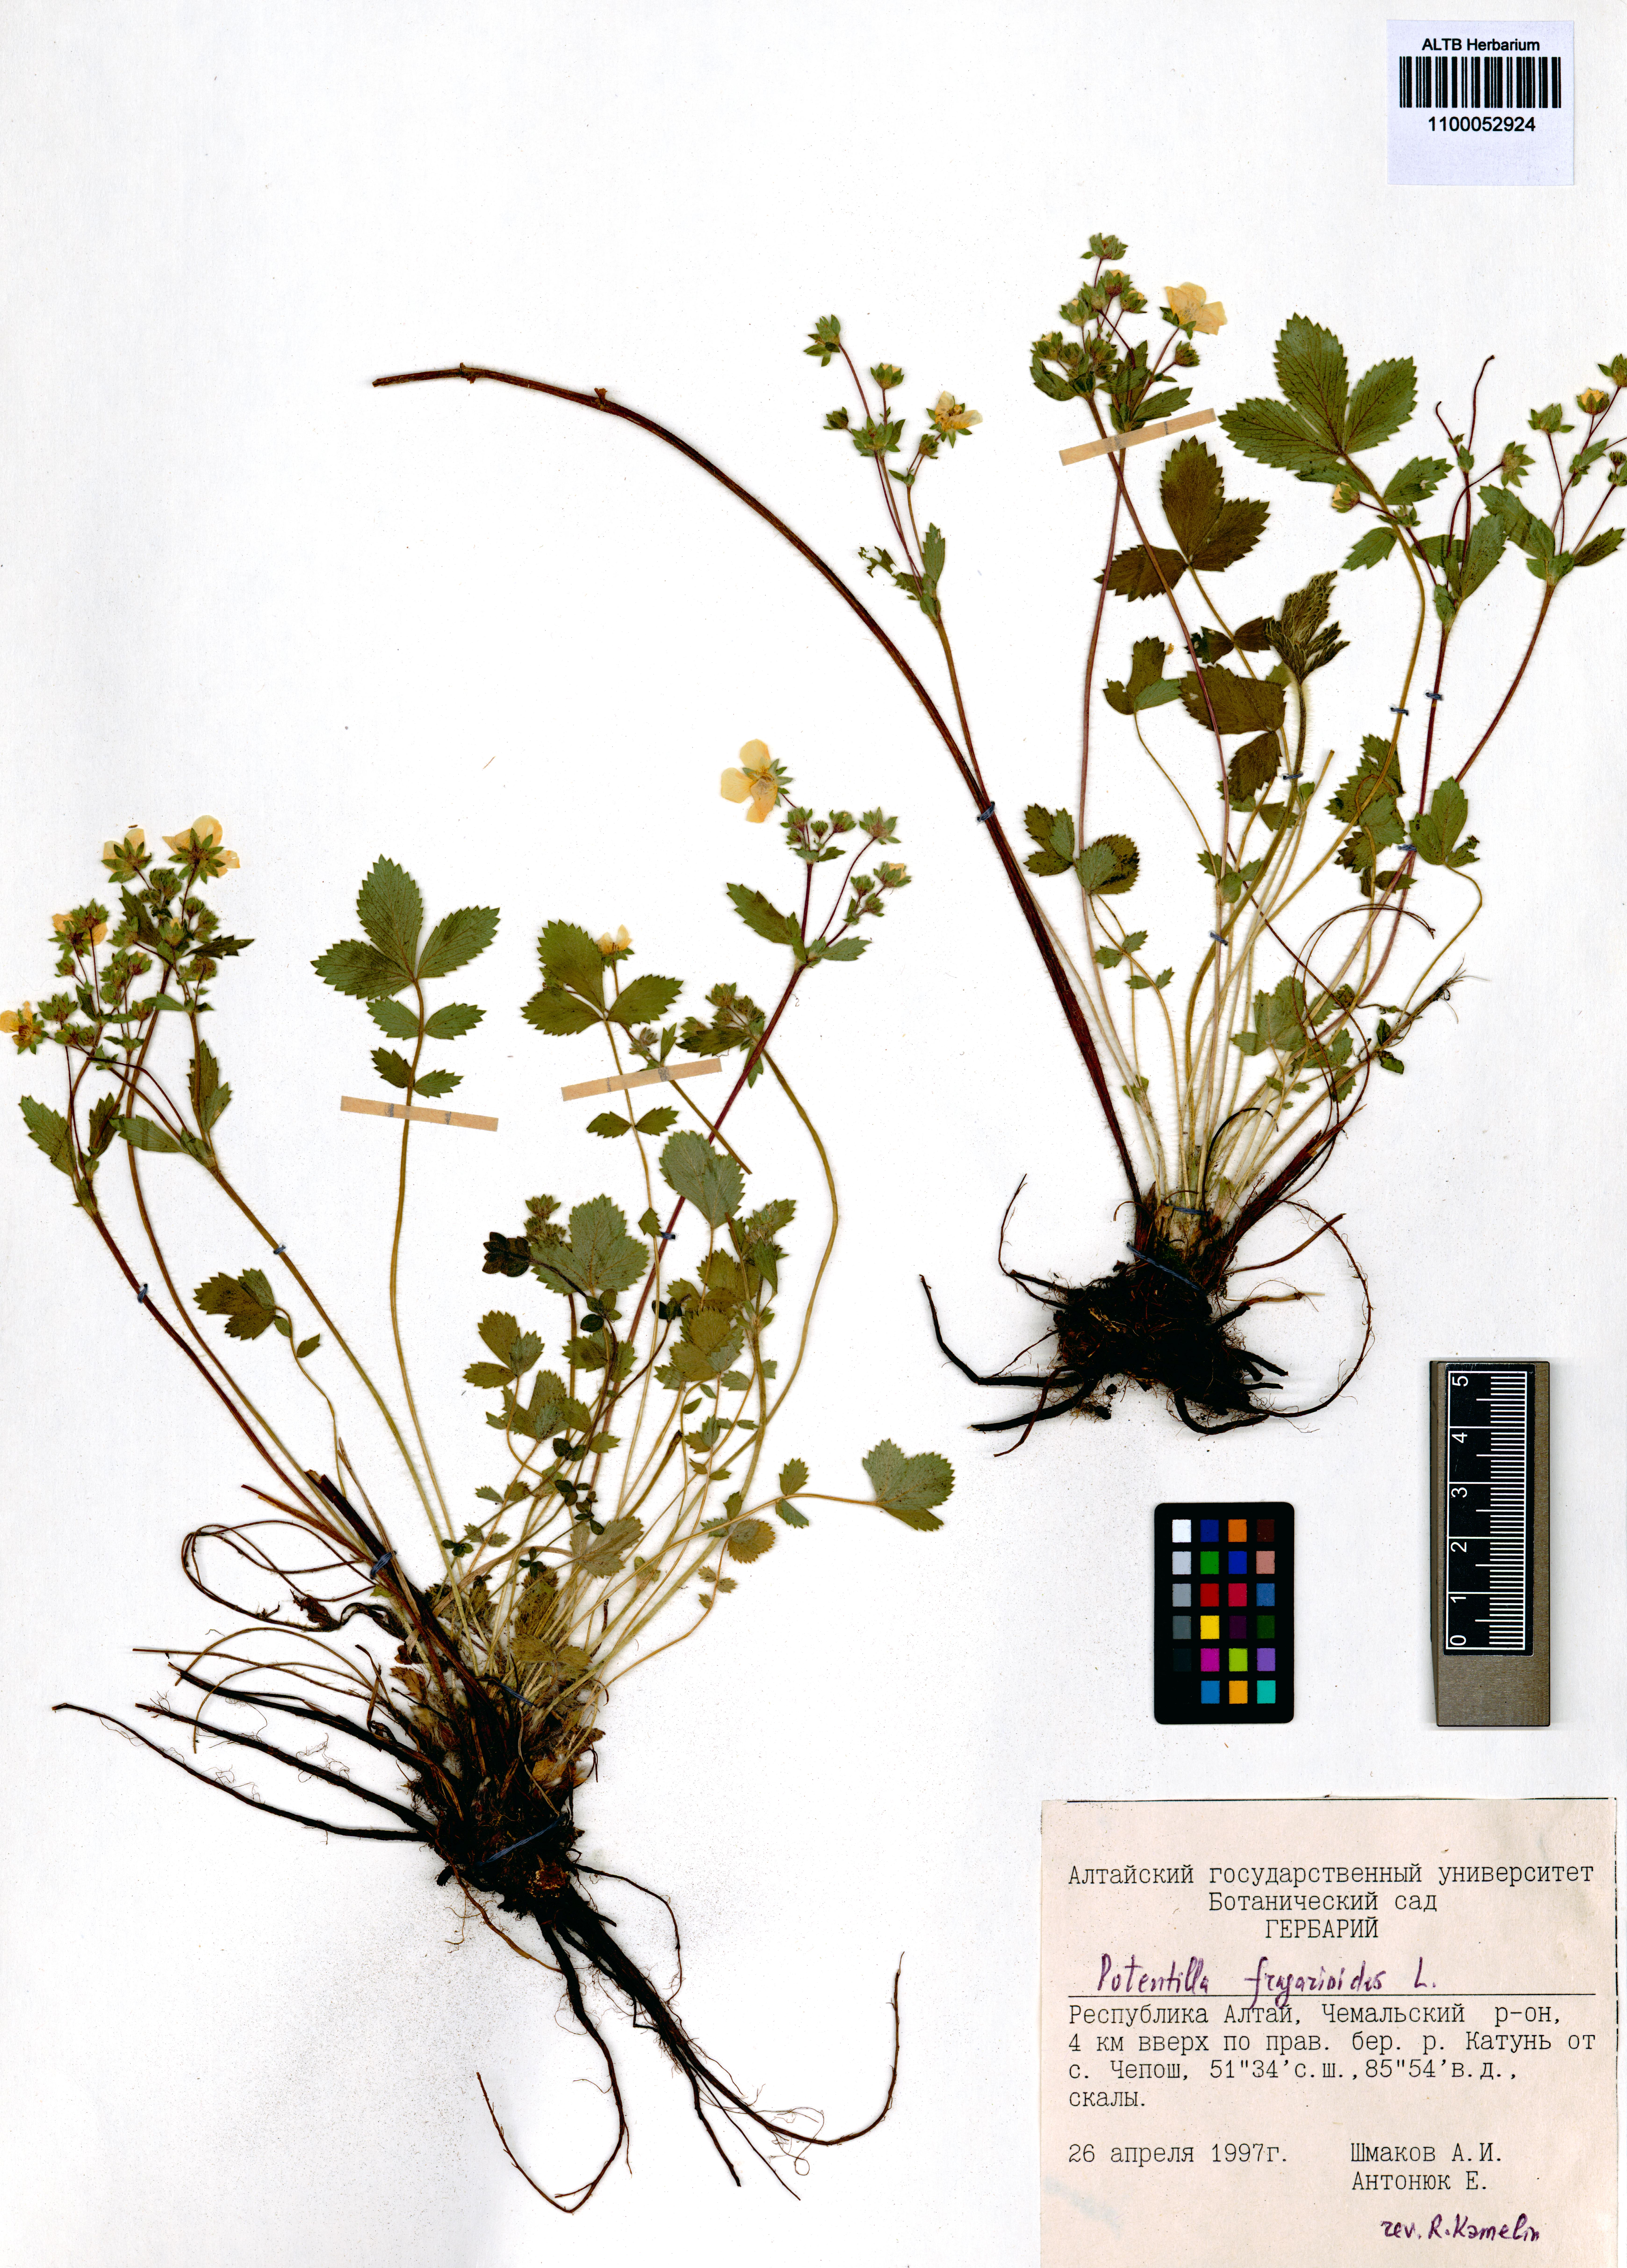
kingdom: Plantae
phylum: Tracheophyta
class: Magnoliopsida
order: Rosales
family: Rosaceae
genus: Potentilla
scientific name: Potentilla fragarioides
